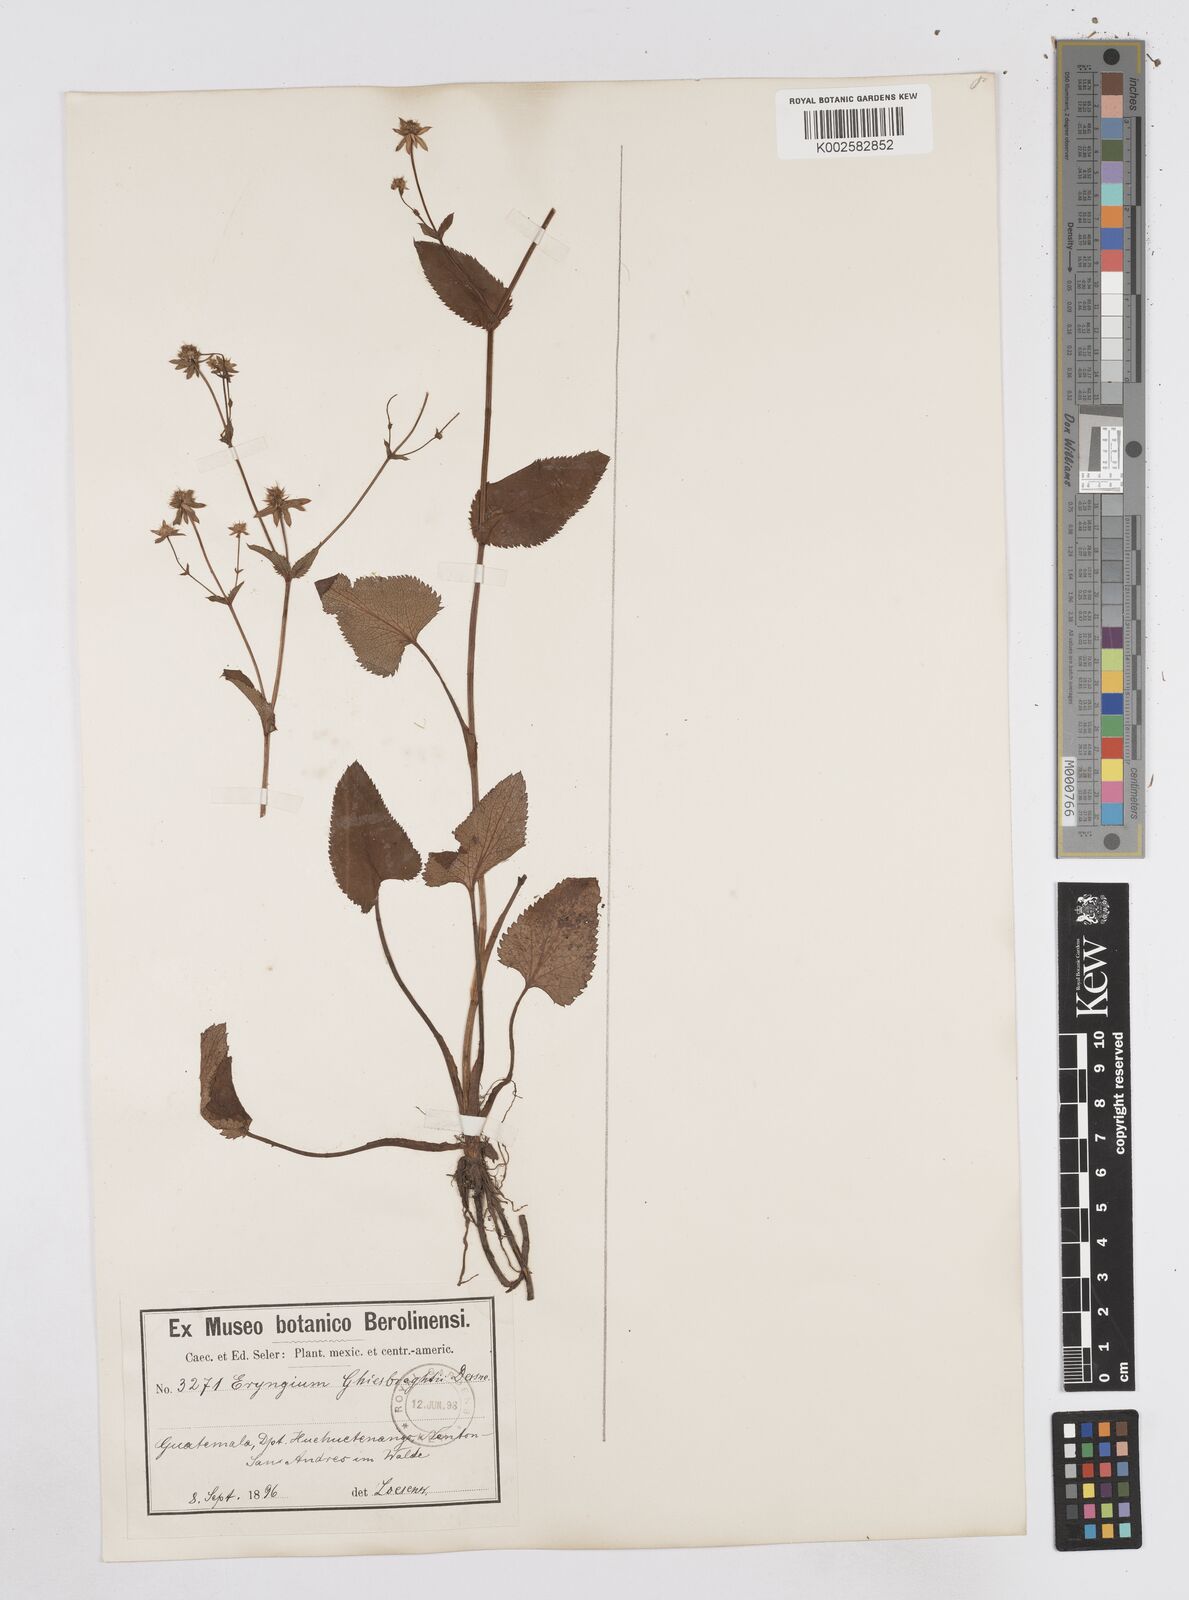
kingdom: Plantae
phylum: Tracheophyta
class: Magnoliopsida
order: Apiales
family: Apiaceae
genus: Eryngium
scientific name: Eryngium ghiesbreghtii
